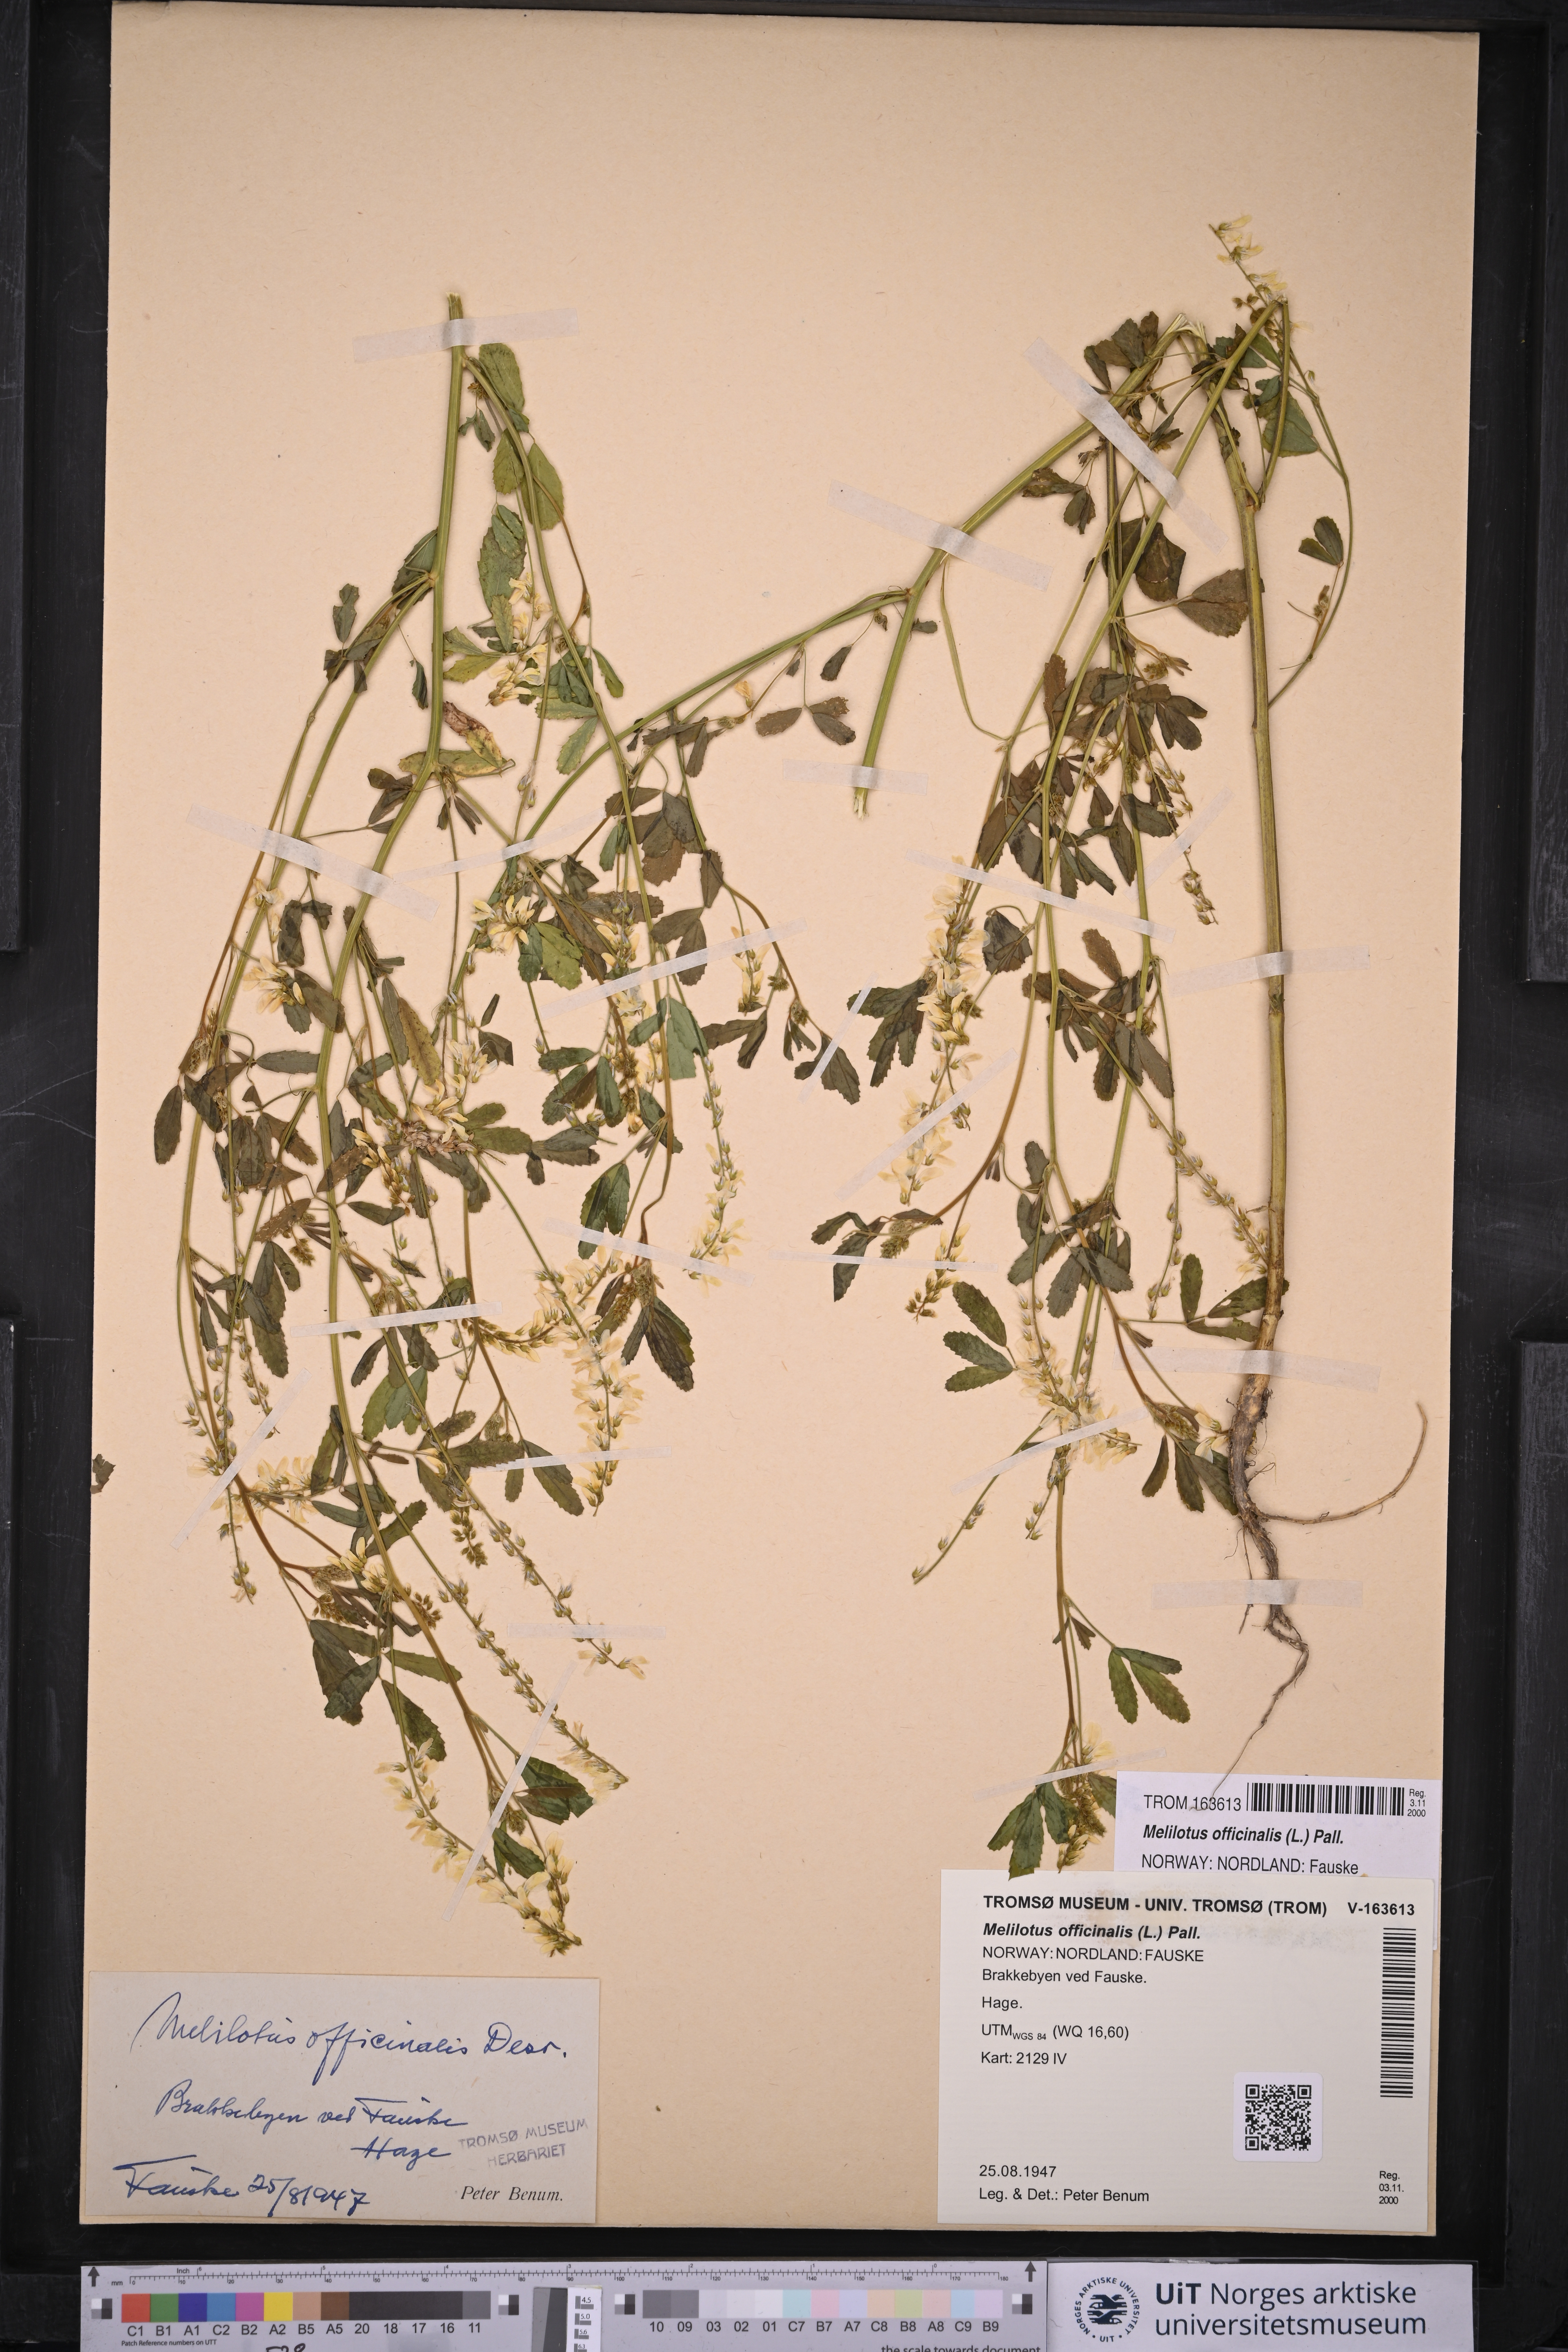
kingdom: Plantae
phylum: Tracheophyta
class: Magnoliopsida
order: Fabales
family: Fabaceae
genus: Melilotus
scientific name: Melilotus officinalis
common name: Sweetclover
